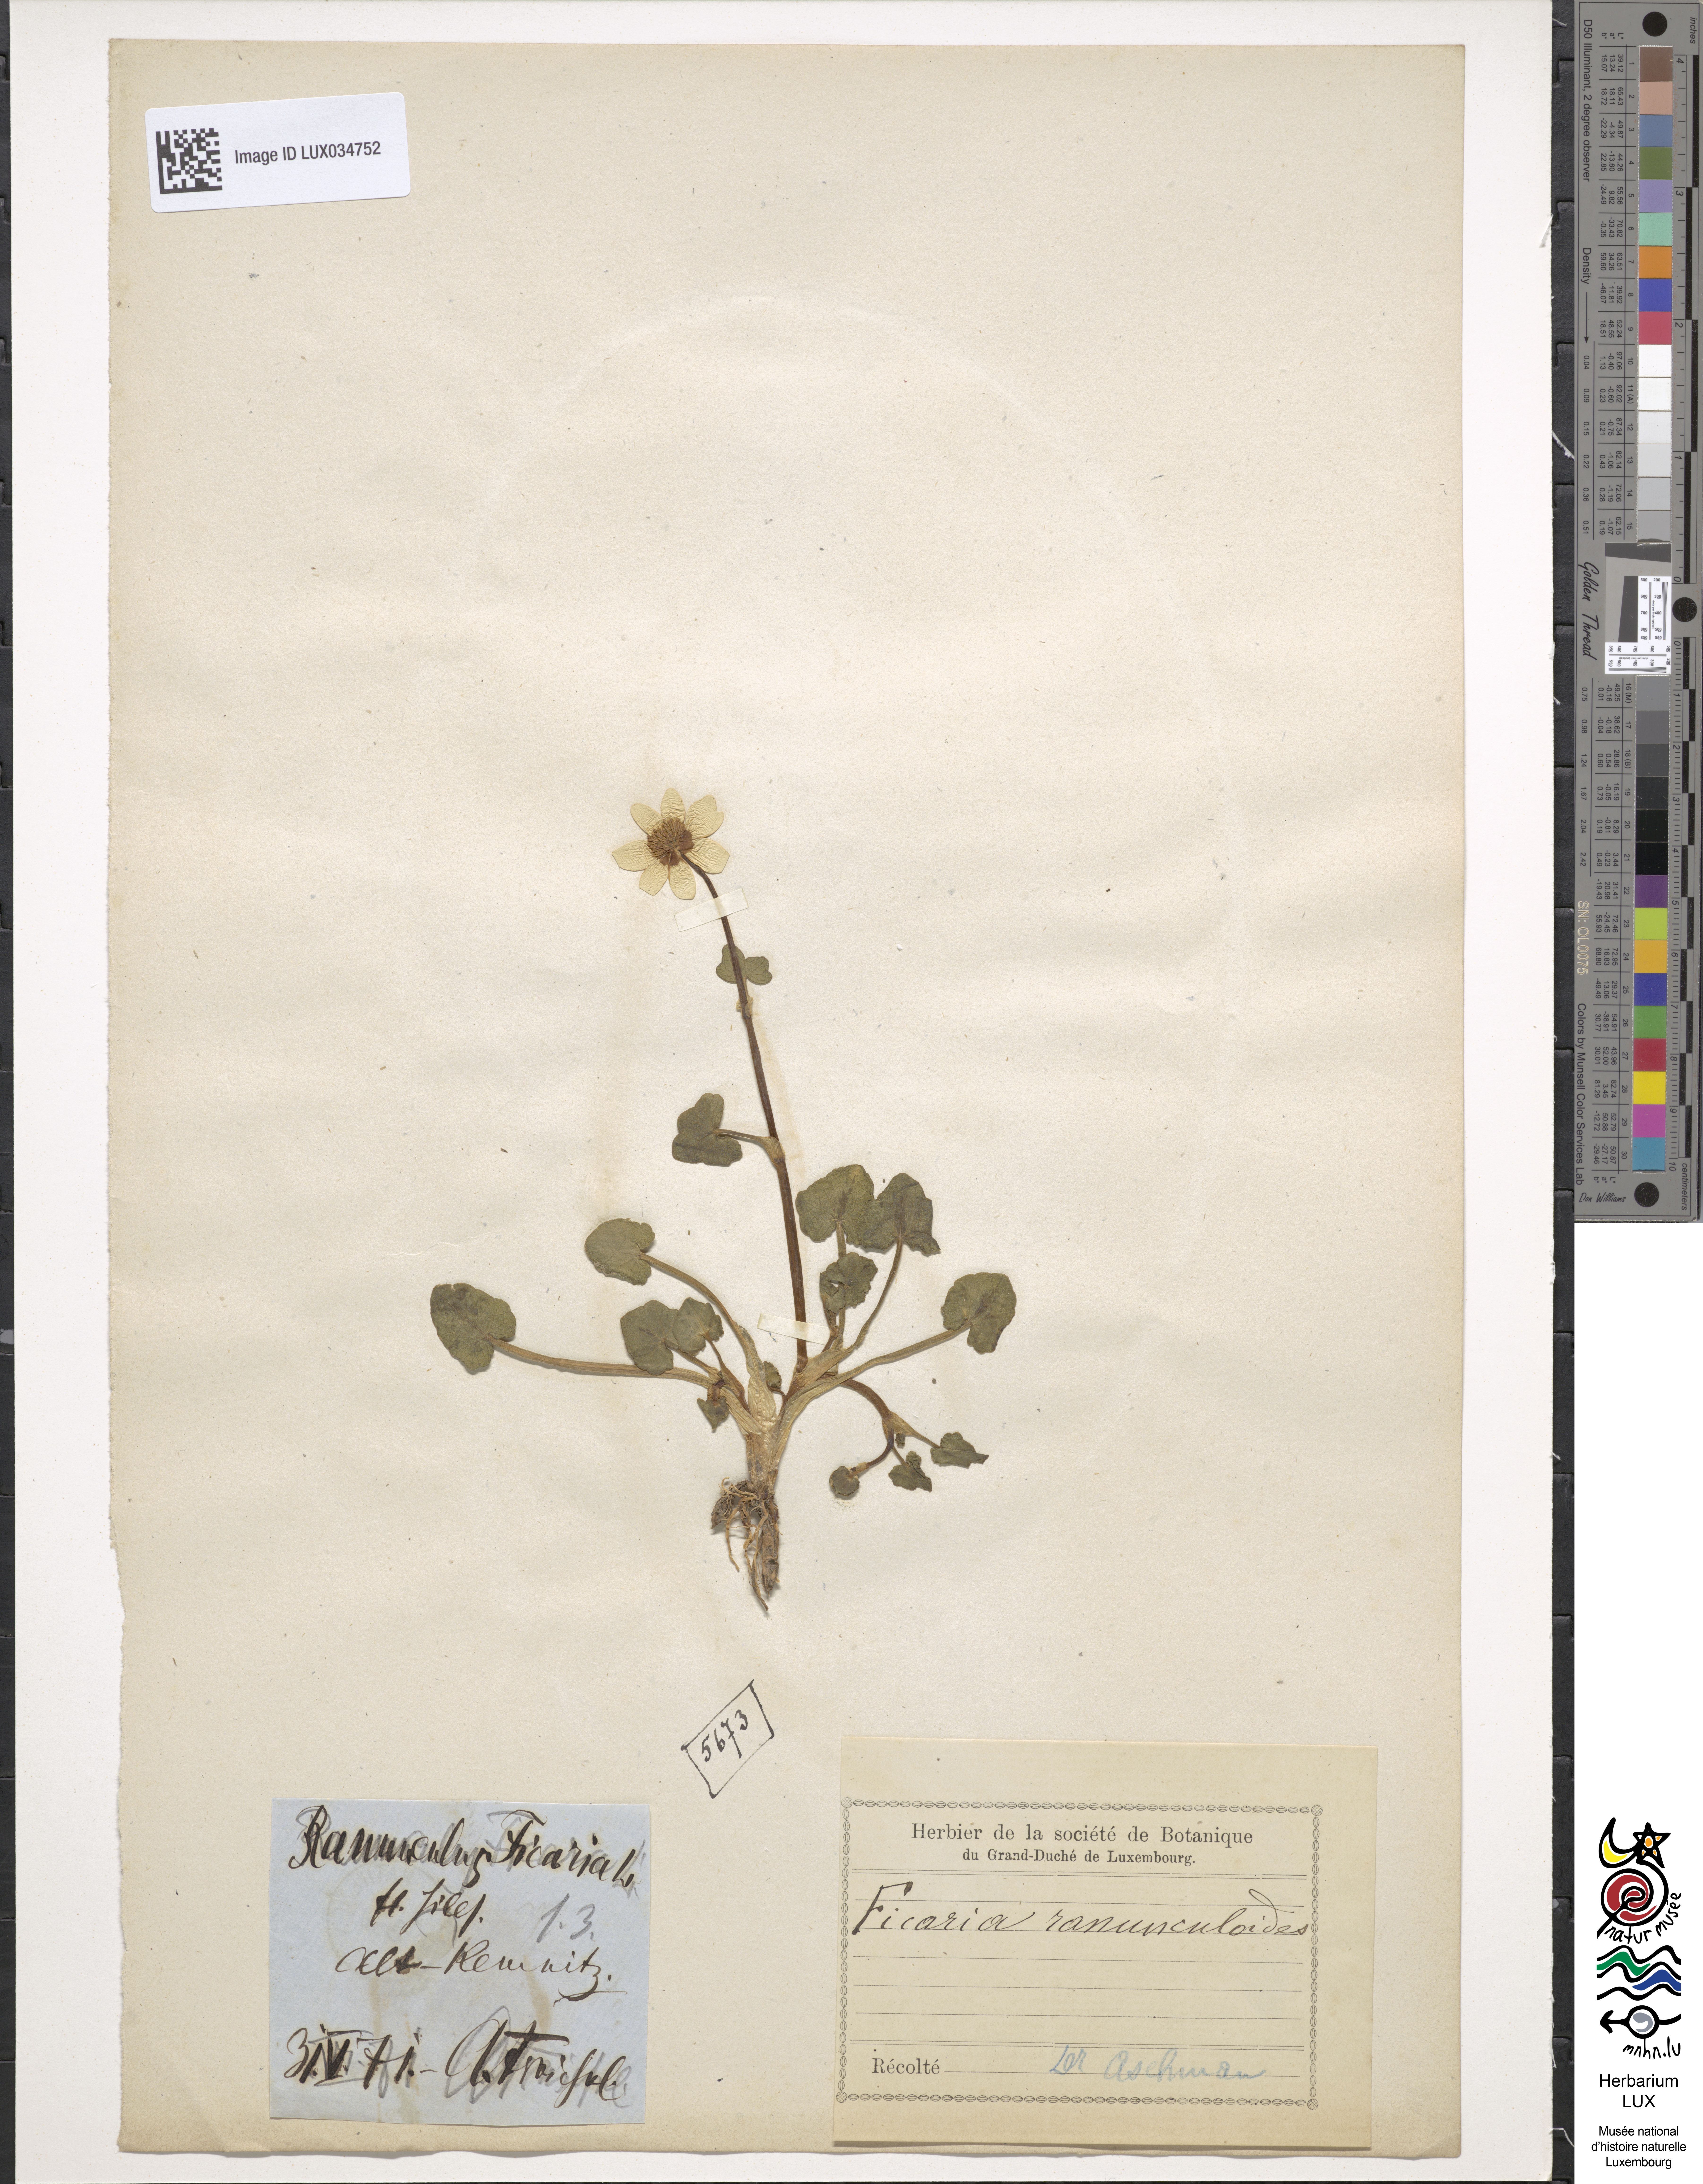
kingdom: Plantae
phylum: Tracheophyta
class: Magnoliopsida
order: Ranunculales
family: Ranunculaceae
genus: Ficaria
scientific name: Ficaria verna
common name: Lesser celandine
